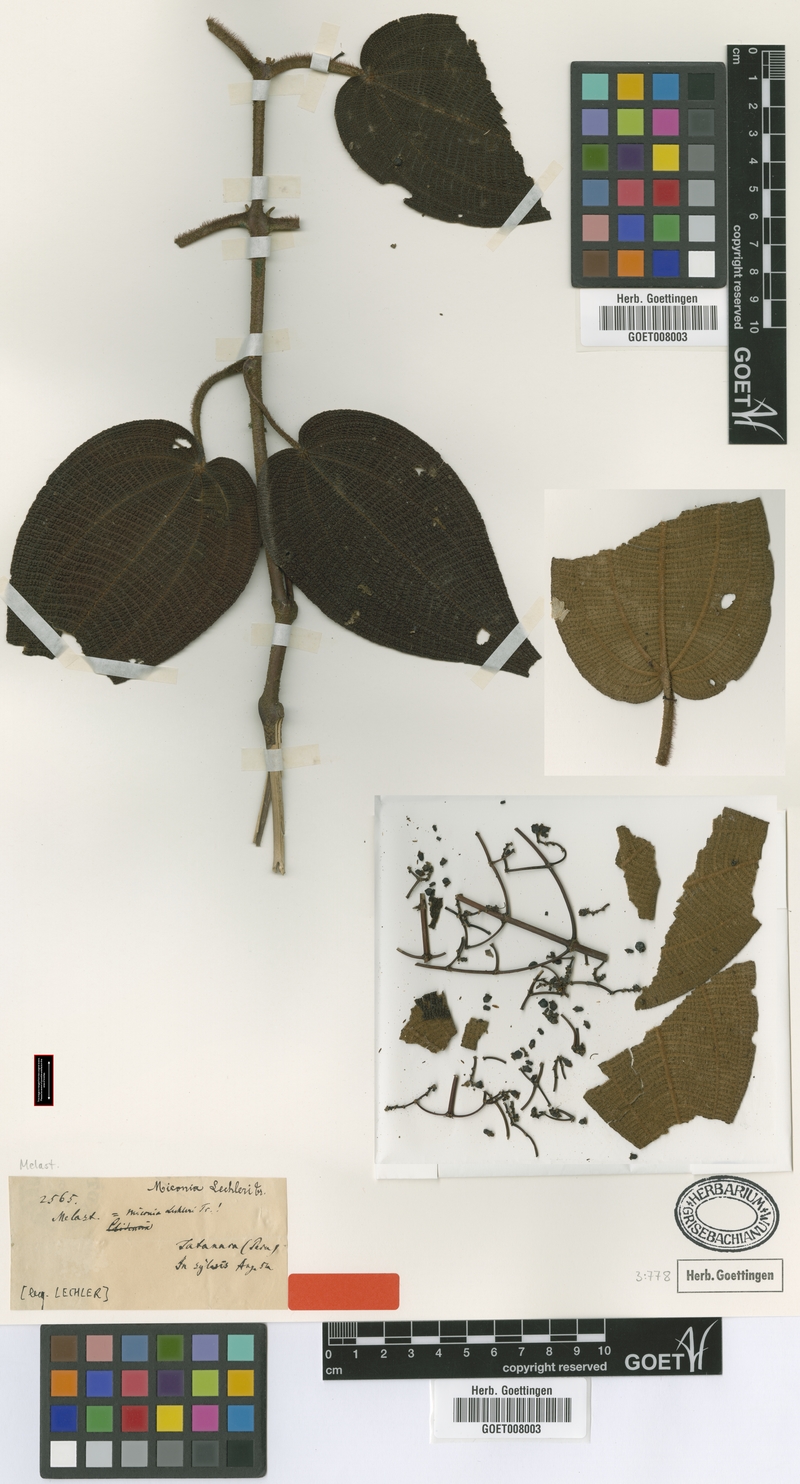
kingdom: Plantae
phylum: Tracheophyta
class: Magnoliopsida
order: Myrtales
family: Melastomataceae
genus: Miconia
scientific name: Miconia lechleri
